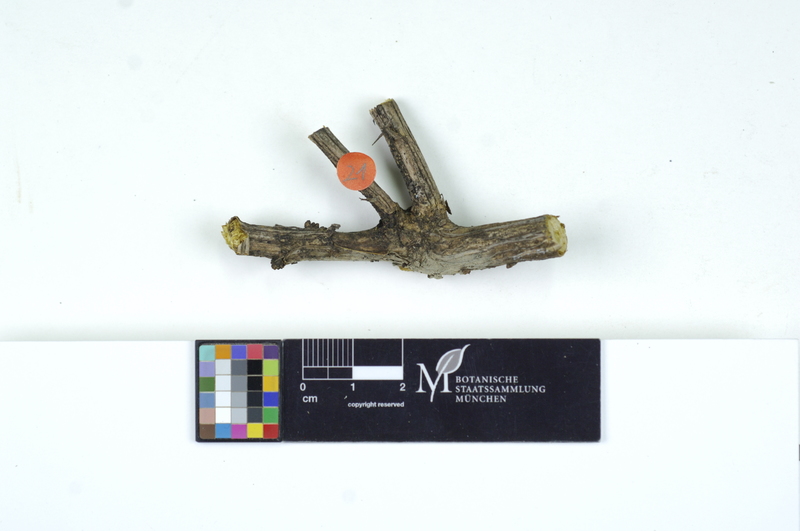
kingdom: Plantae
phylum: Tracheophyta
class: Magnoliopsida
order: Ranunculales
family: Berberidaceae
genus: Berberis
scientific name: Berberis
